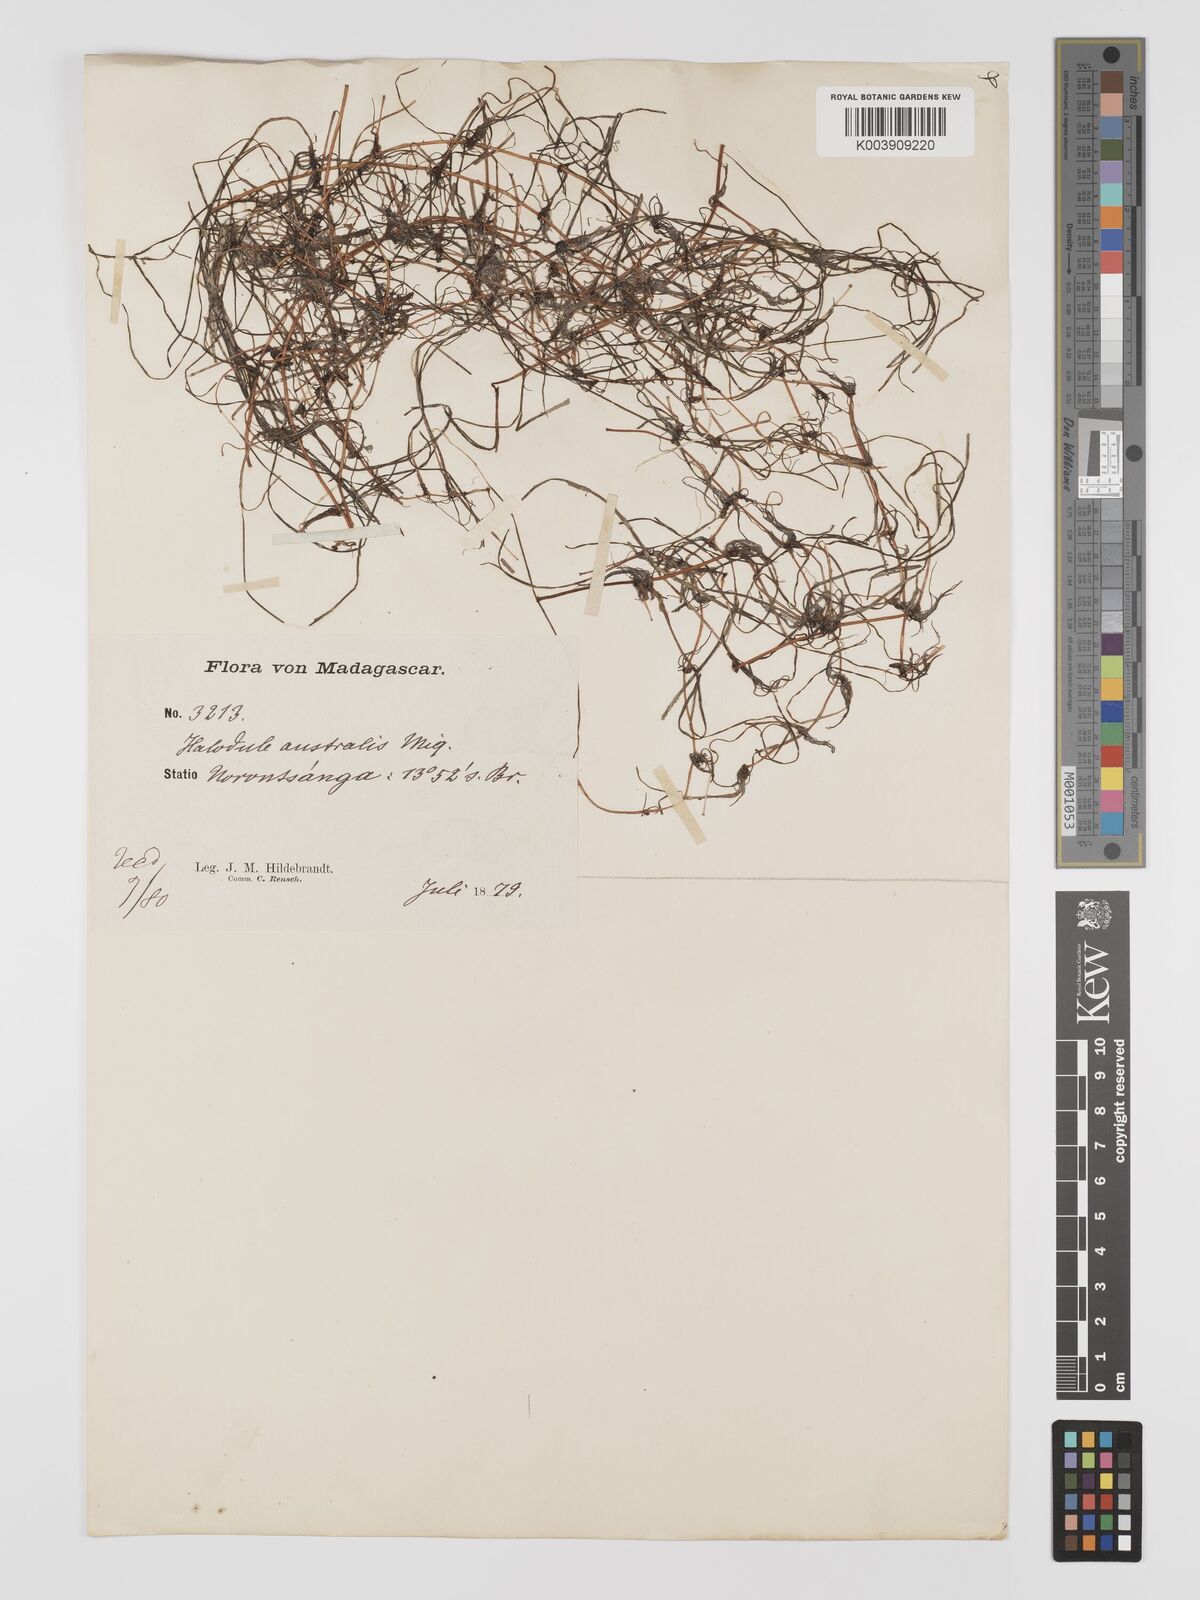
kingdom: Plantae
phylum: Tracheophyta
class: Liliopsida
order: Alismatales
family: Cymodoceaceae
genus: Halodule
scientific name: Halodule uninervis
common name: Narrowleaf seagrass
